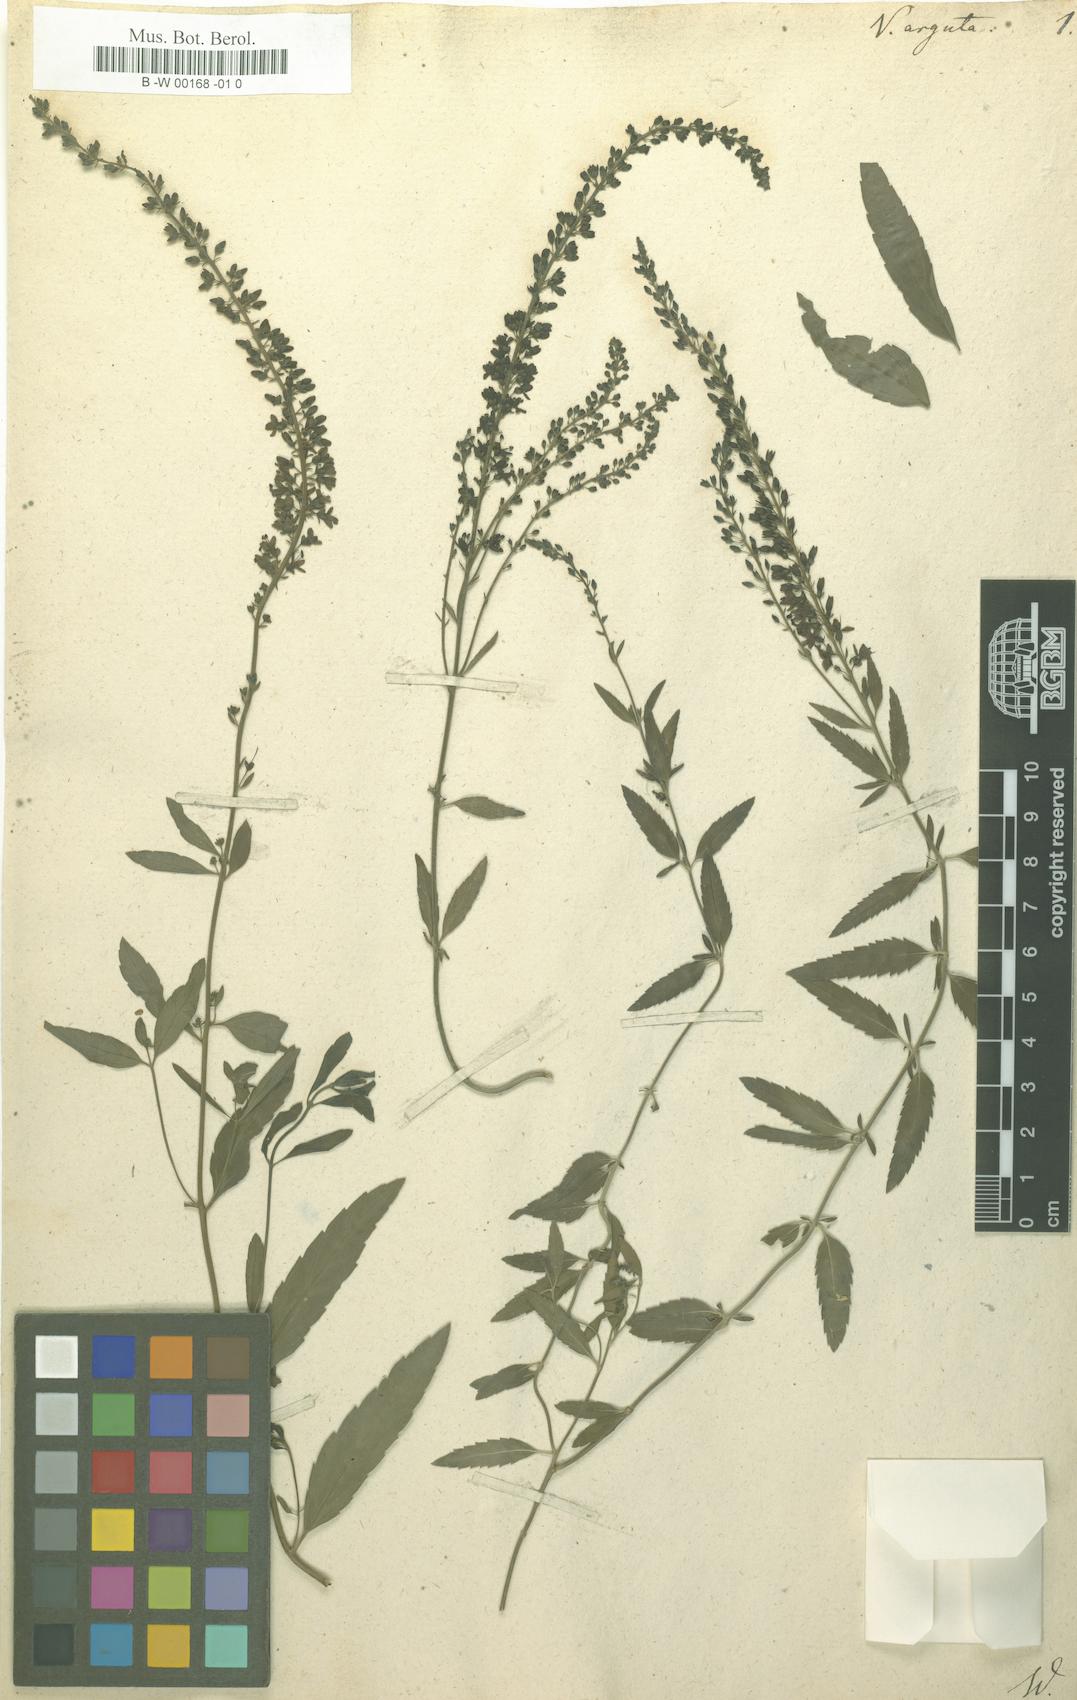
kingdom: Plantae
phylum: Tracheophyta
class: Magnoliopsida
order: Lamiales
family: Plantaginaceae
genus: Veronica
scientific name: Veronica
